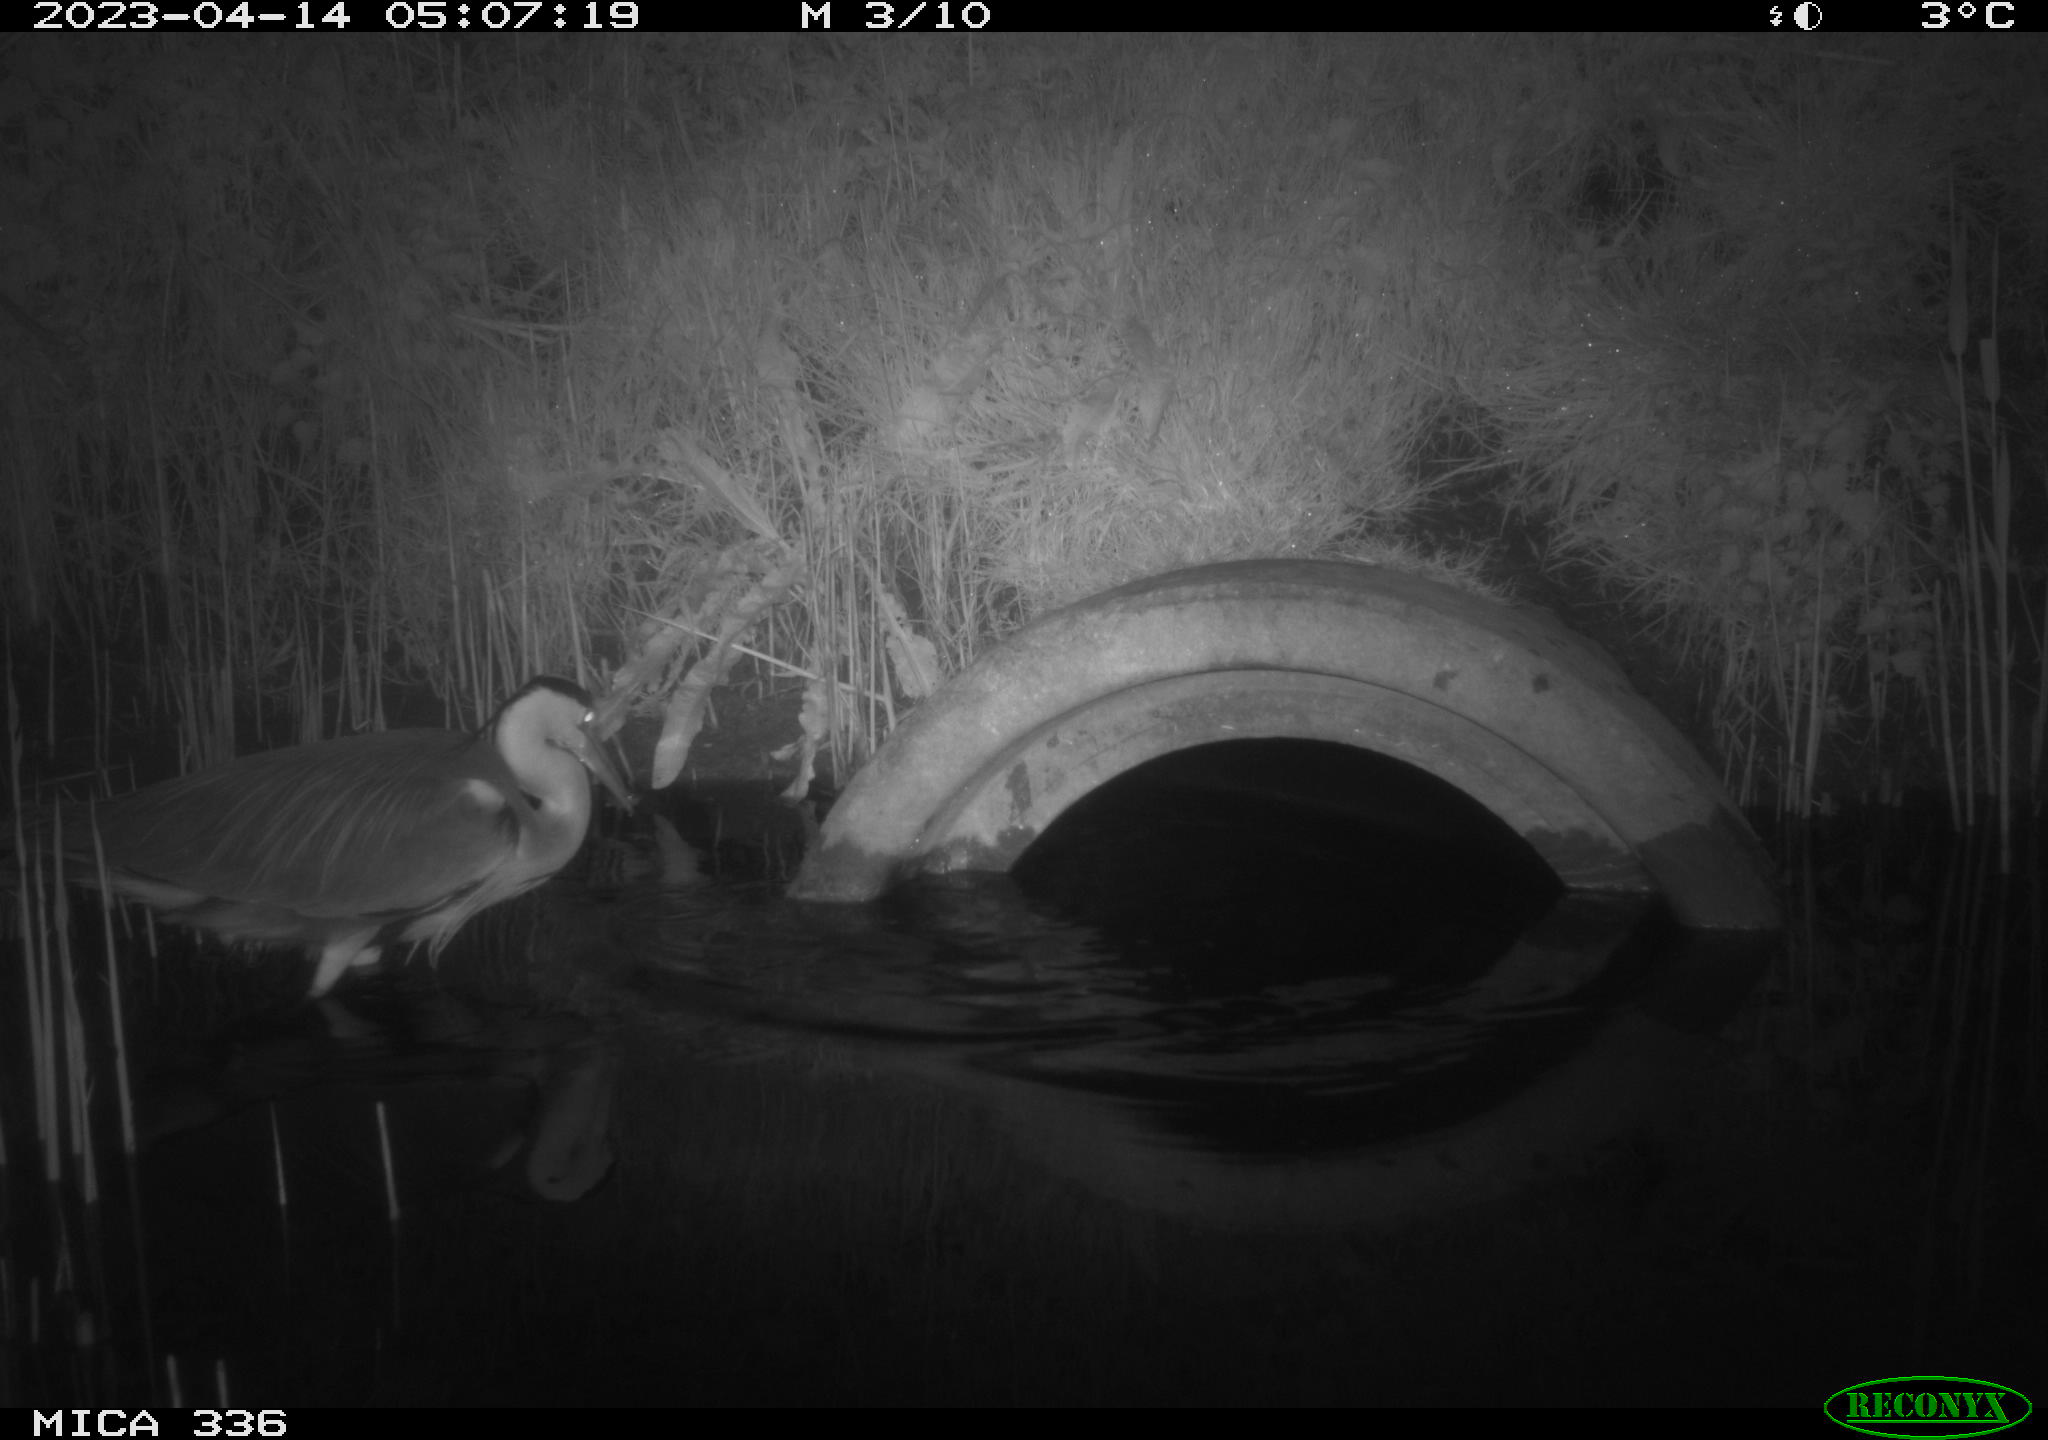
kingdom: Animalia
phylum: Chordata
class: Aves
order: Pelecaniformes
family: Ardeidae
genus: Ardea
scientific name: Ardea
